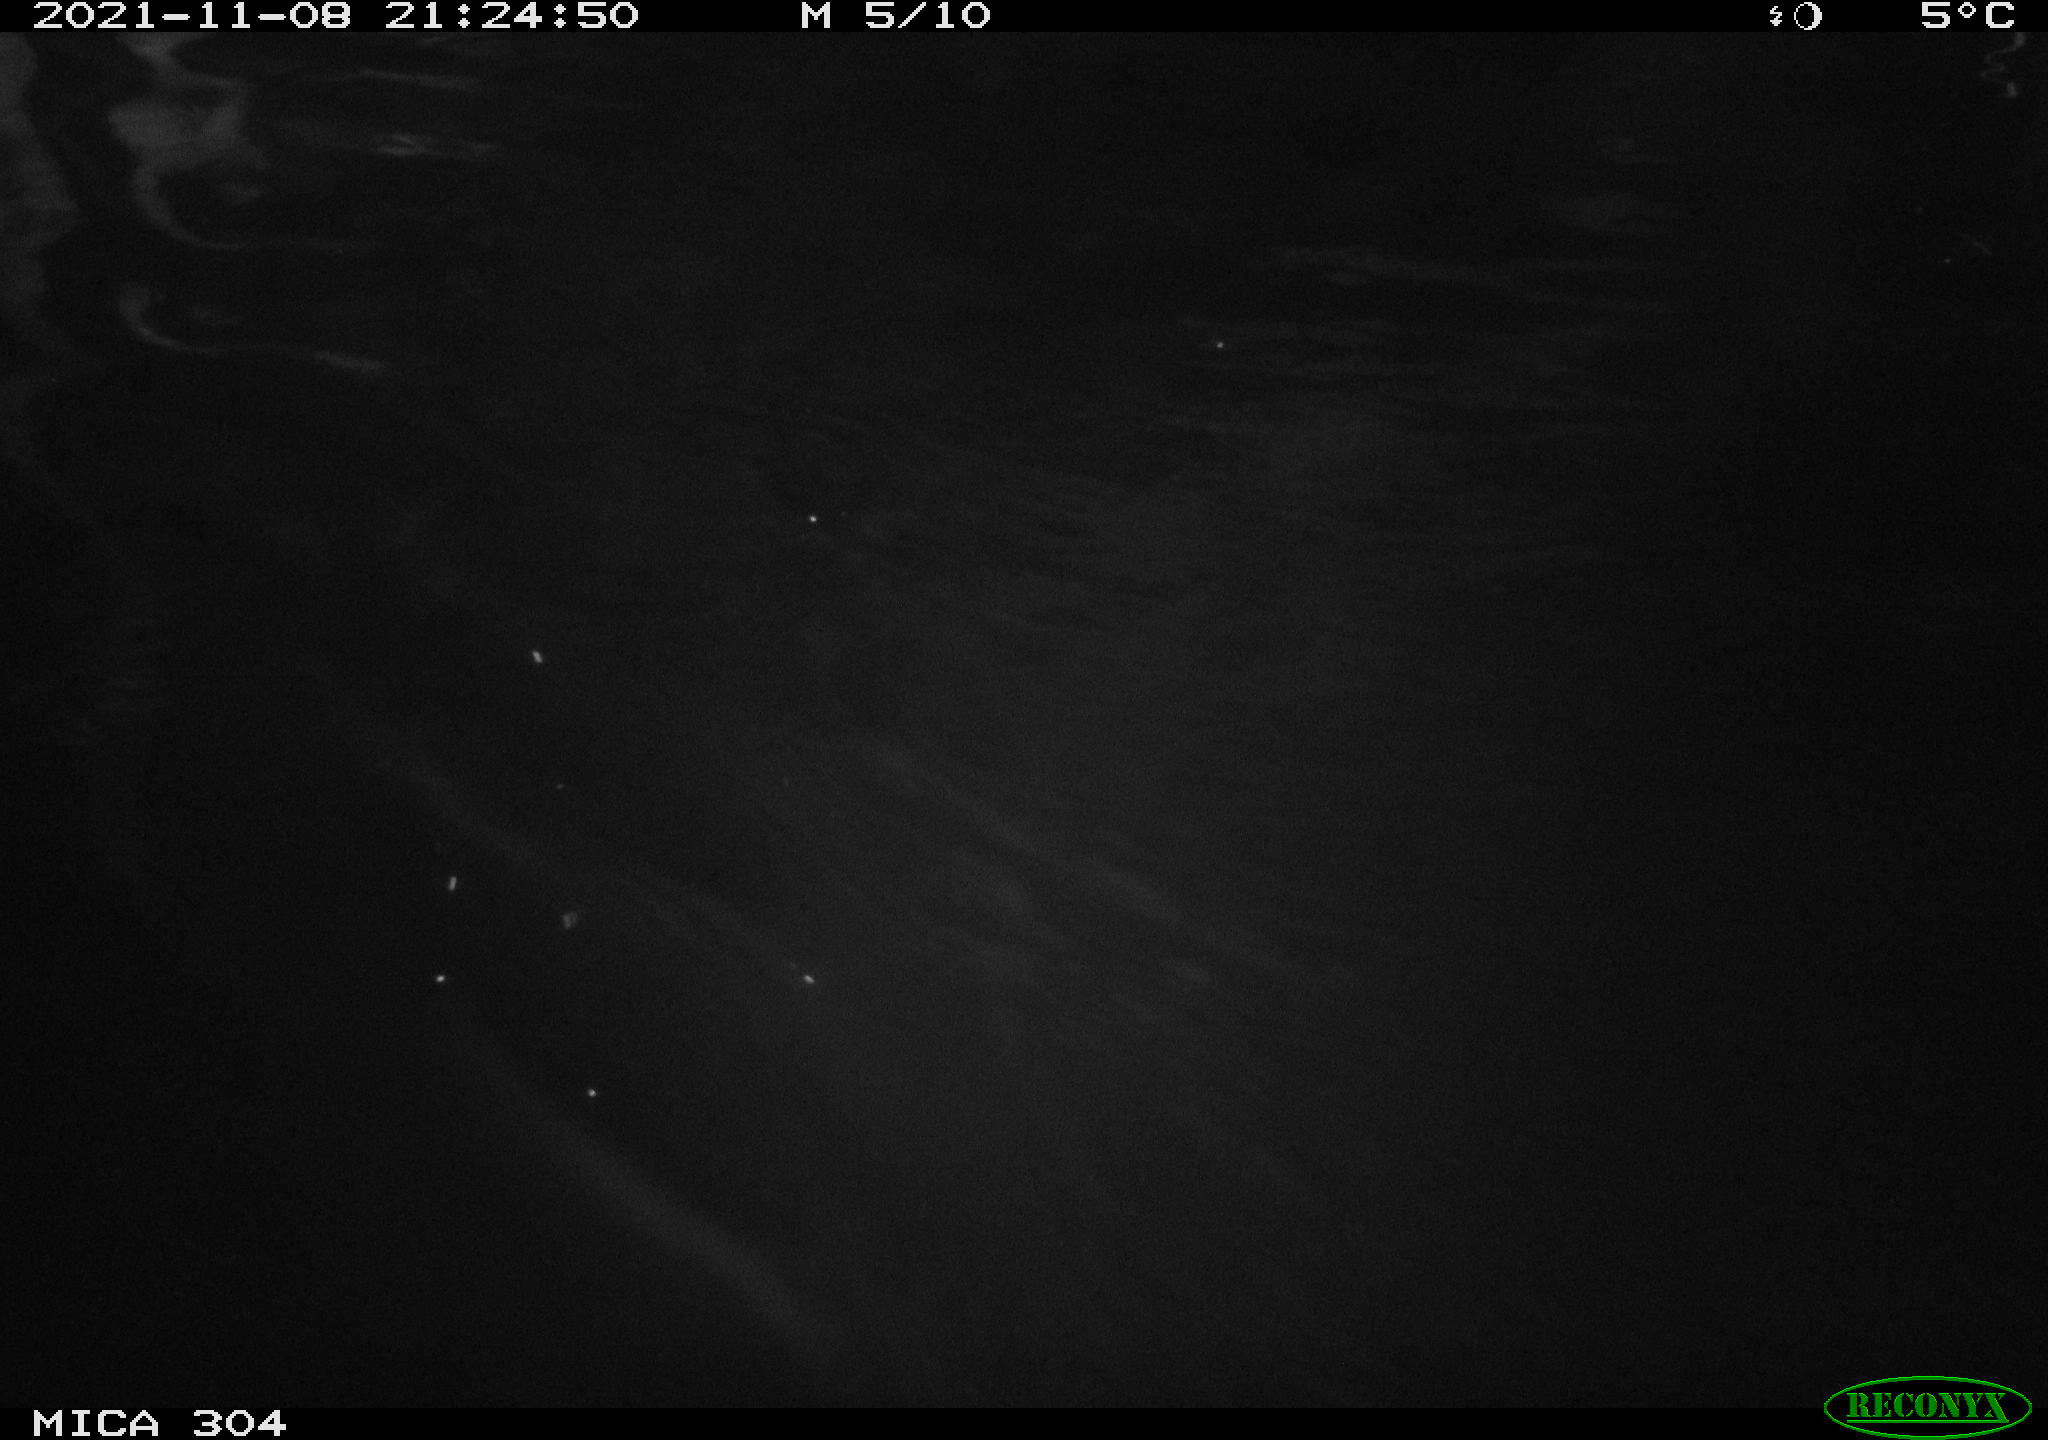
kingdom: Animalia
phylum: Chordata
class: Mammalia
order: Rodentia
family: Cricetidae
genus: Ondatra
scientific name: Ondatra zibethicus
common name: Muskrat
